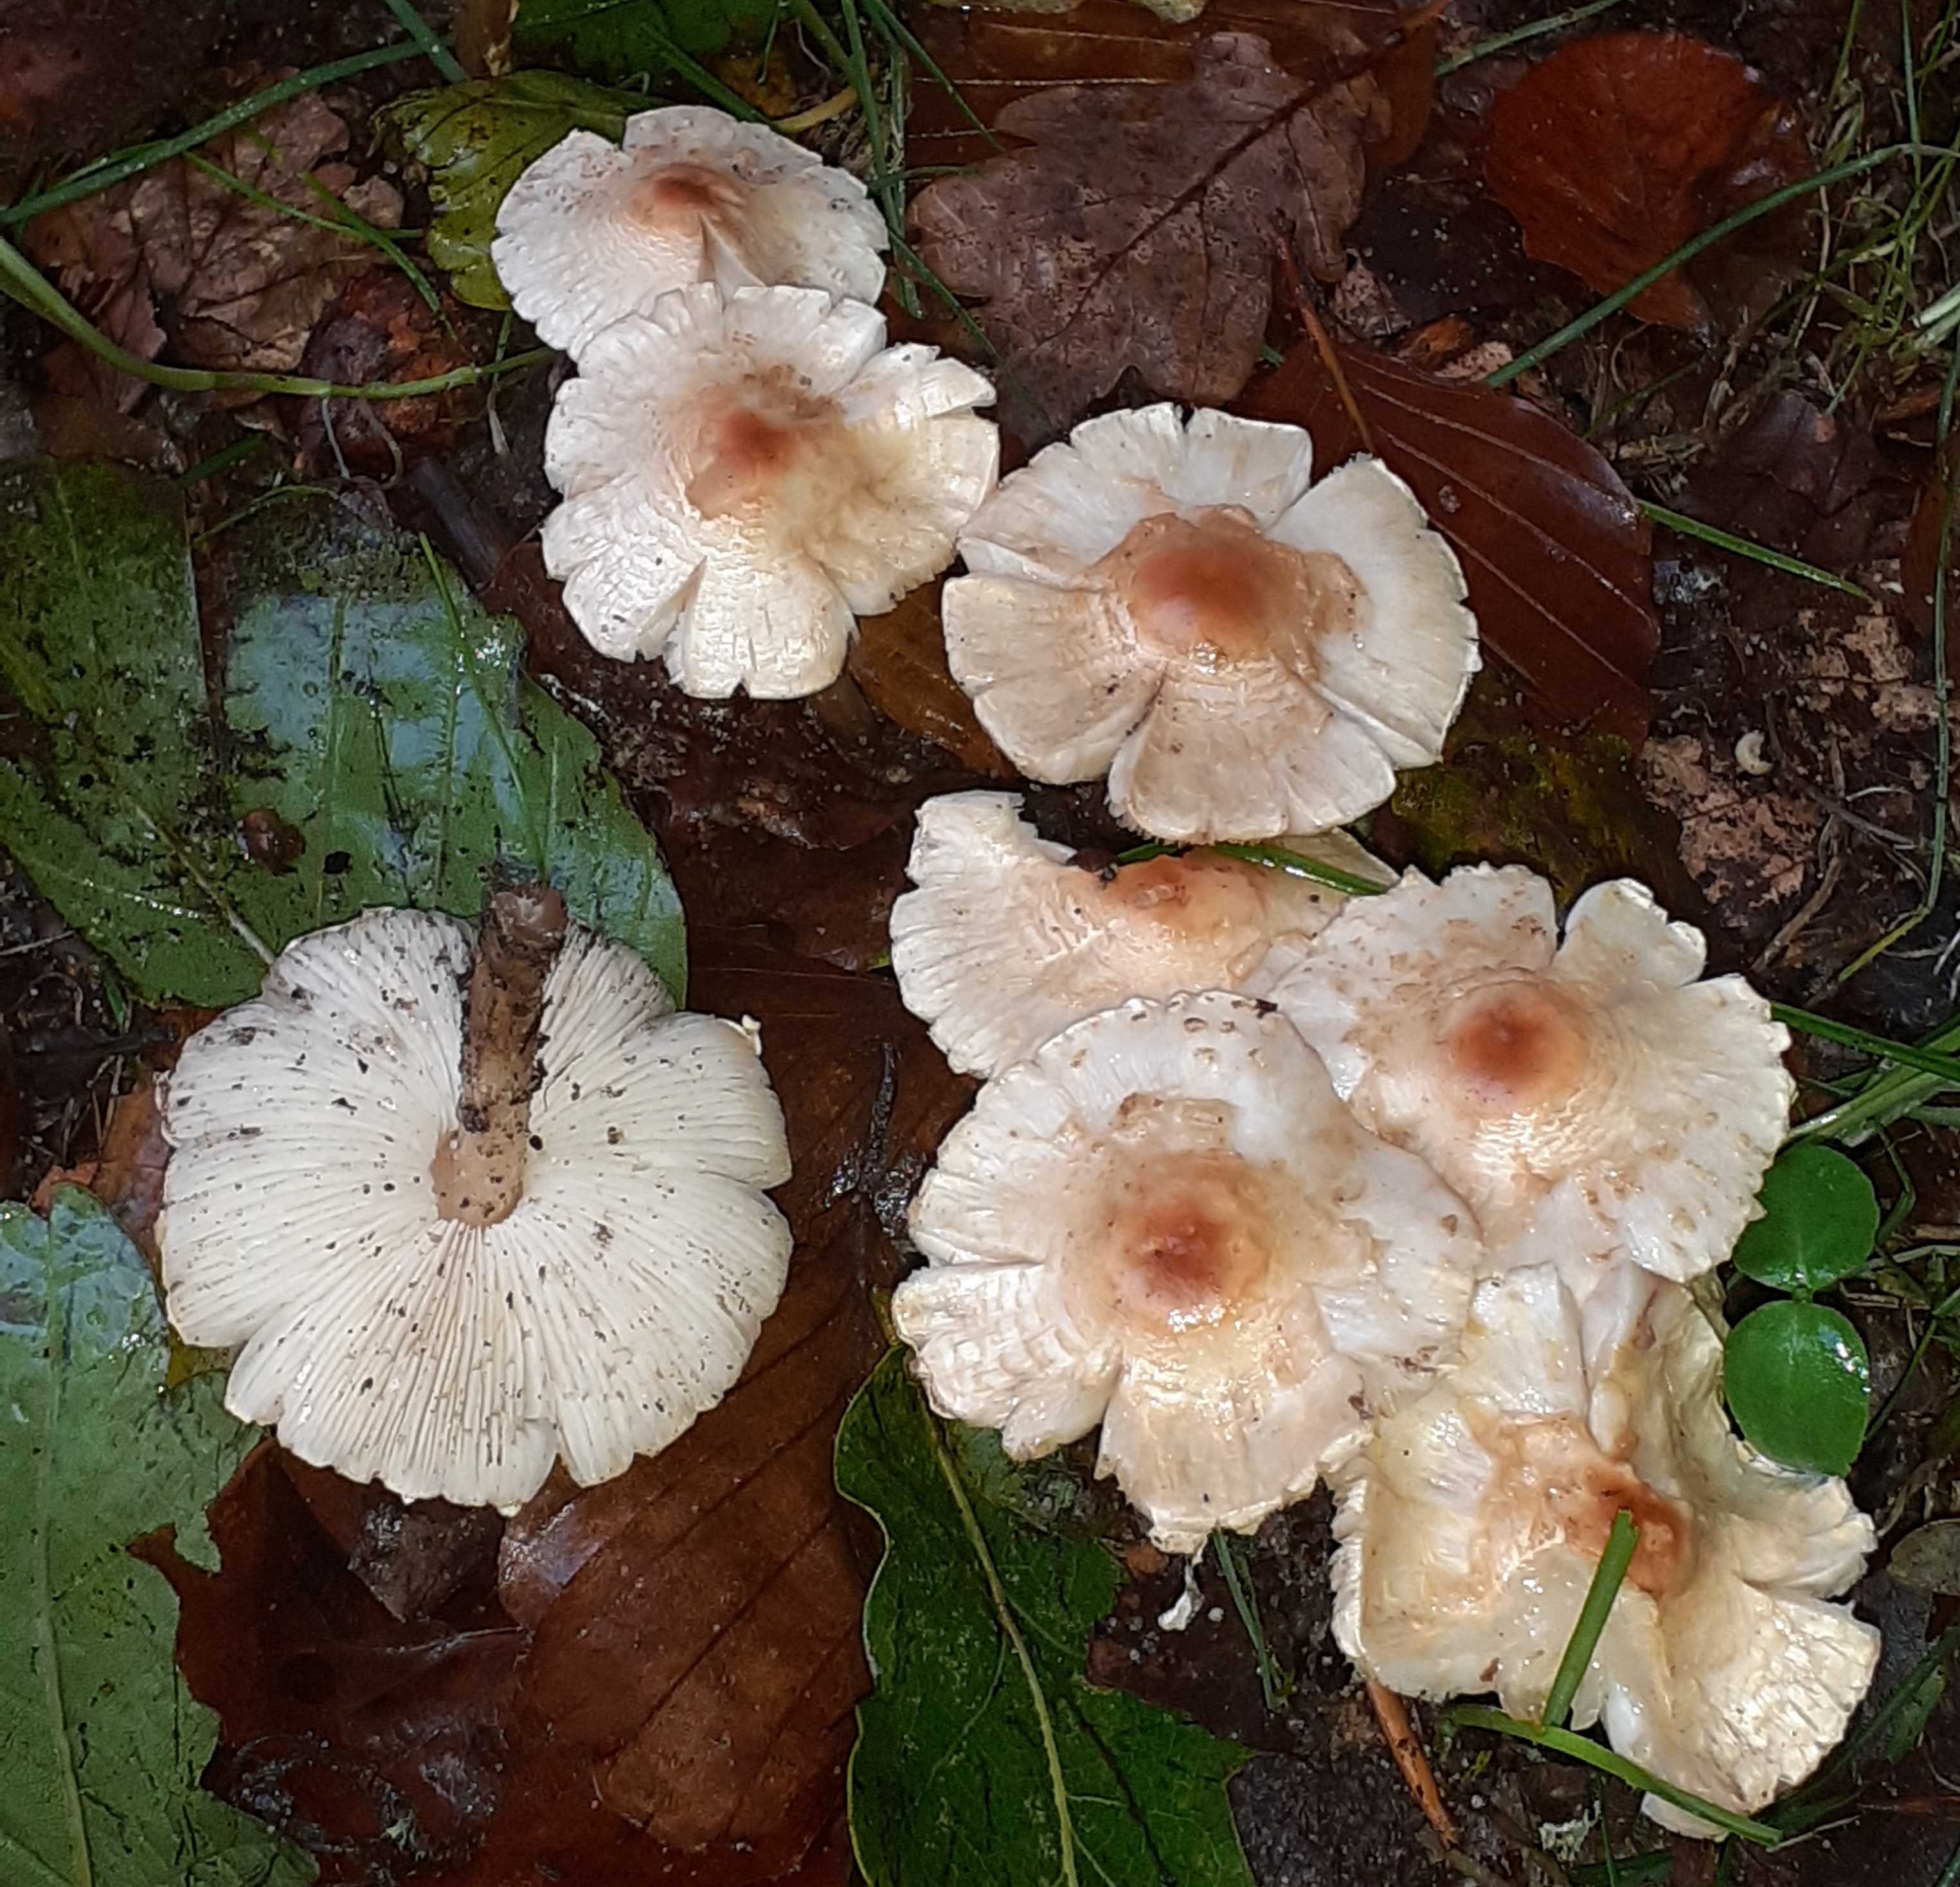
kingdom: Fungi
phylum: Basidiomycota
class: Agaricomycetes
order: Agaricales
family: Agaricaceae
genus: Lepiota
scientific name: Lepiota cristata
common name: stinkende parasolhat
